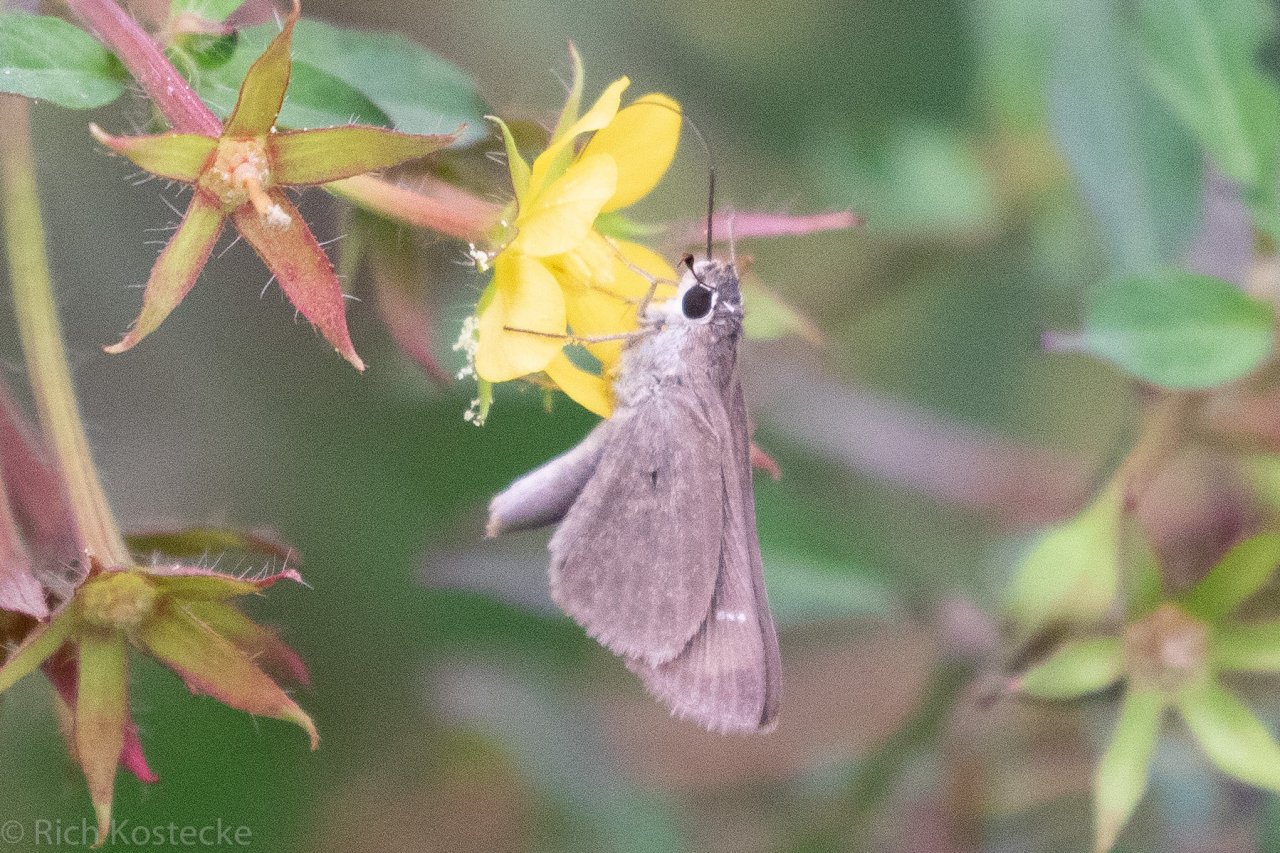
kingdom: Animalia
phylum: Arthropoda
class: Insecta
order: Lepidoptera
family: Hesperiidae
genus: Lerodea
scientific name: Lerodea eufala
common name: Eufala Skipper
